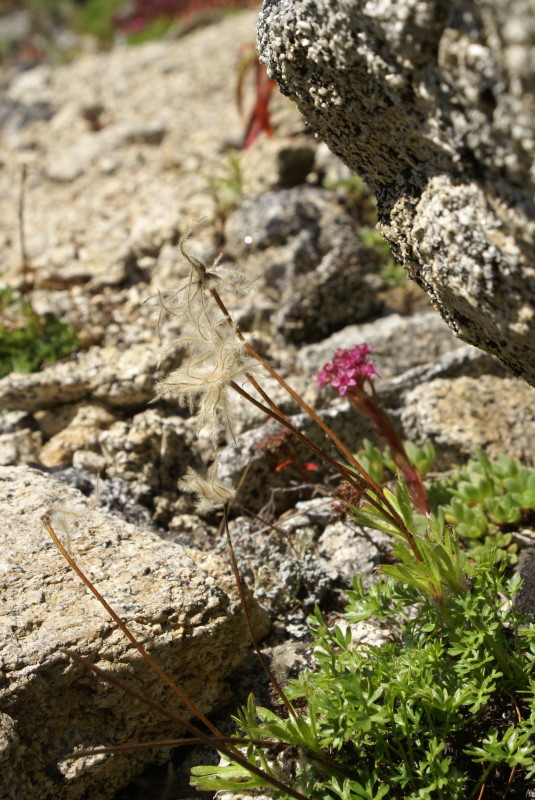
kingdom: Plantae
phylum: Tracheophyta
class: Magnoliopsida
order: Ranunculales
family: Ranunculaceae
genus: Pulsatilla
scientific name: Pulsatilla magadanensis
